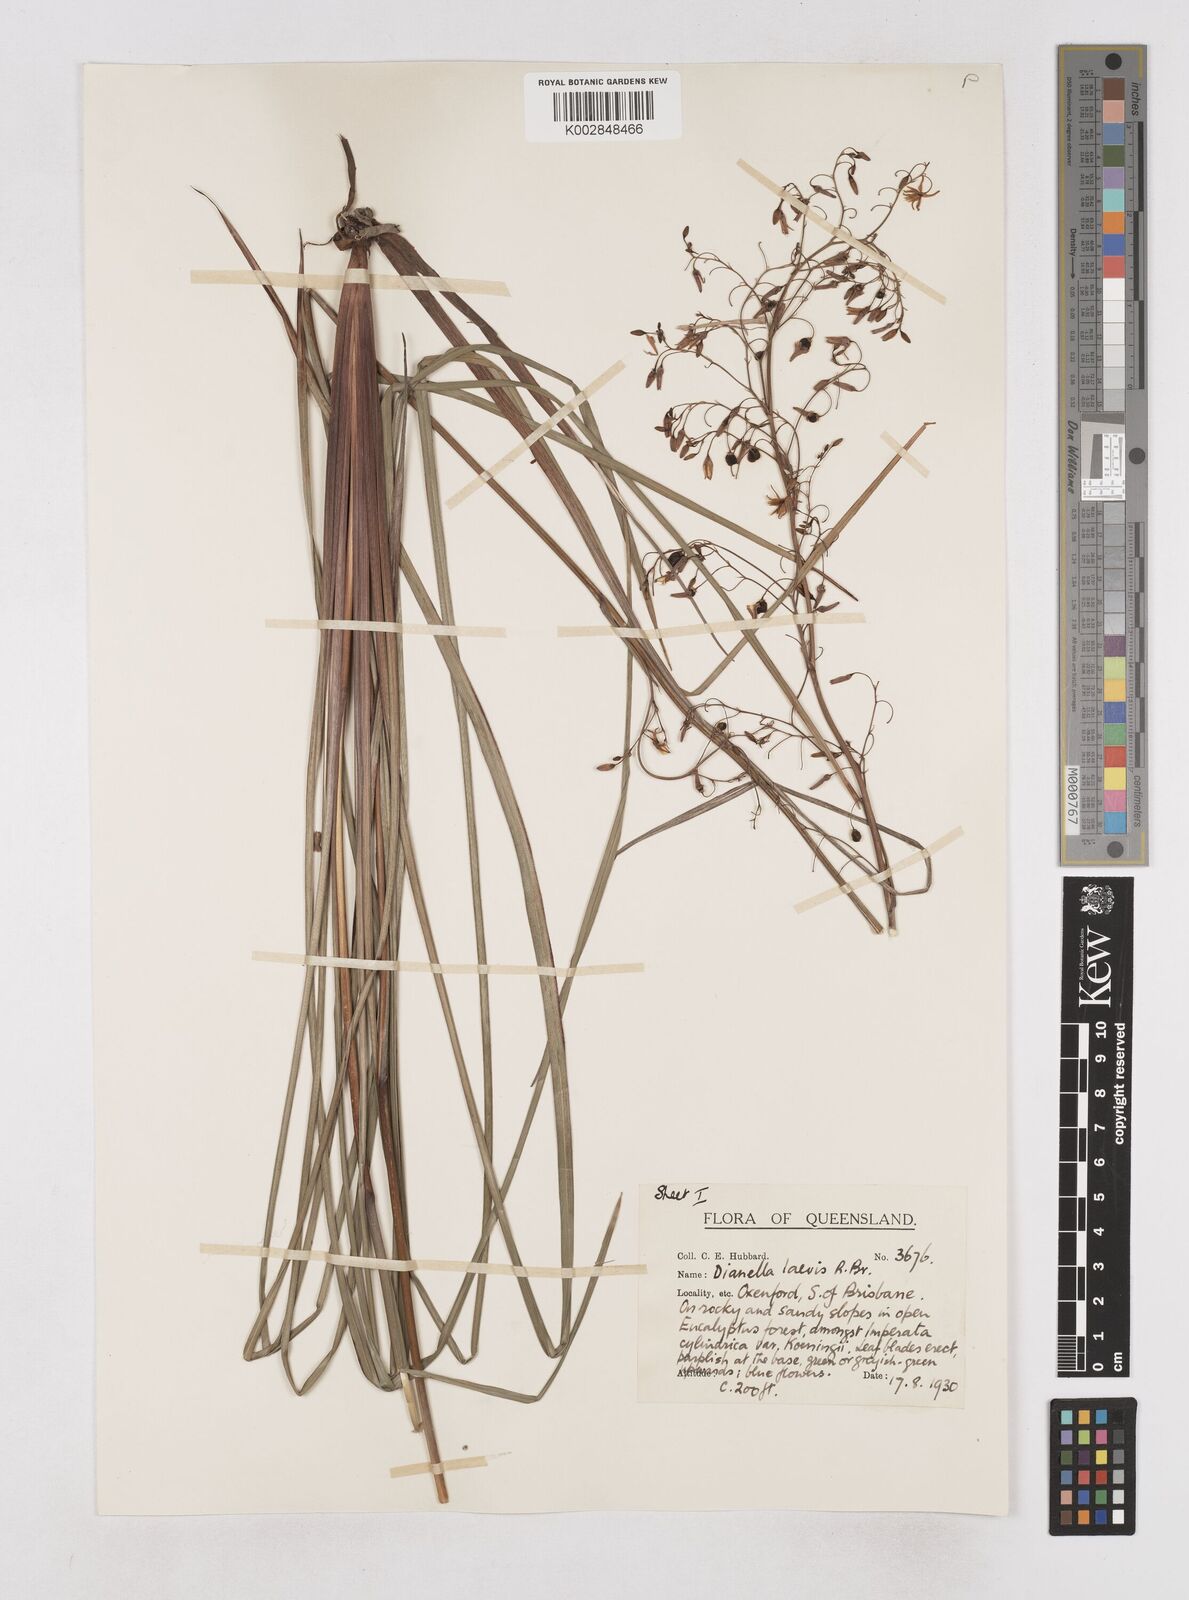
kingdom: Plantae
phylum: Tracheophyta
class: Liliopsida
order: Asparagales
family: Asphodelaceae
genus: Dianella
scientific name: Dianella longifolia
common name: Blue flax-lily
